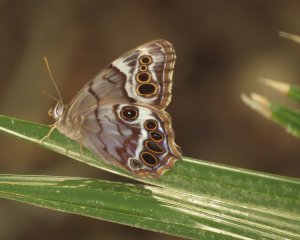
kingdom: Animalia
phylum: Arthropoda
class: Insecta
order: Lepidoptera
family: Nymphalidae
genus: Enodia
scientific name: Enodia portlandia
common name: Southern Pearly Eye
